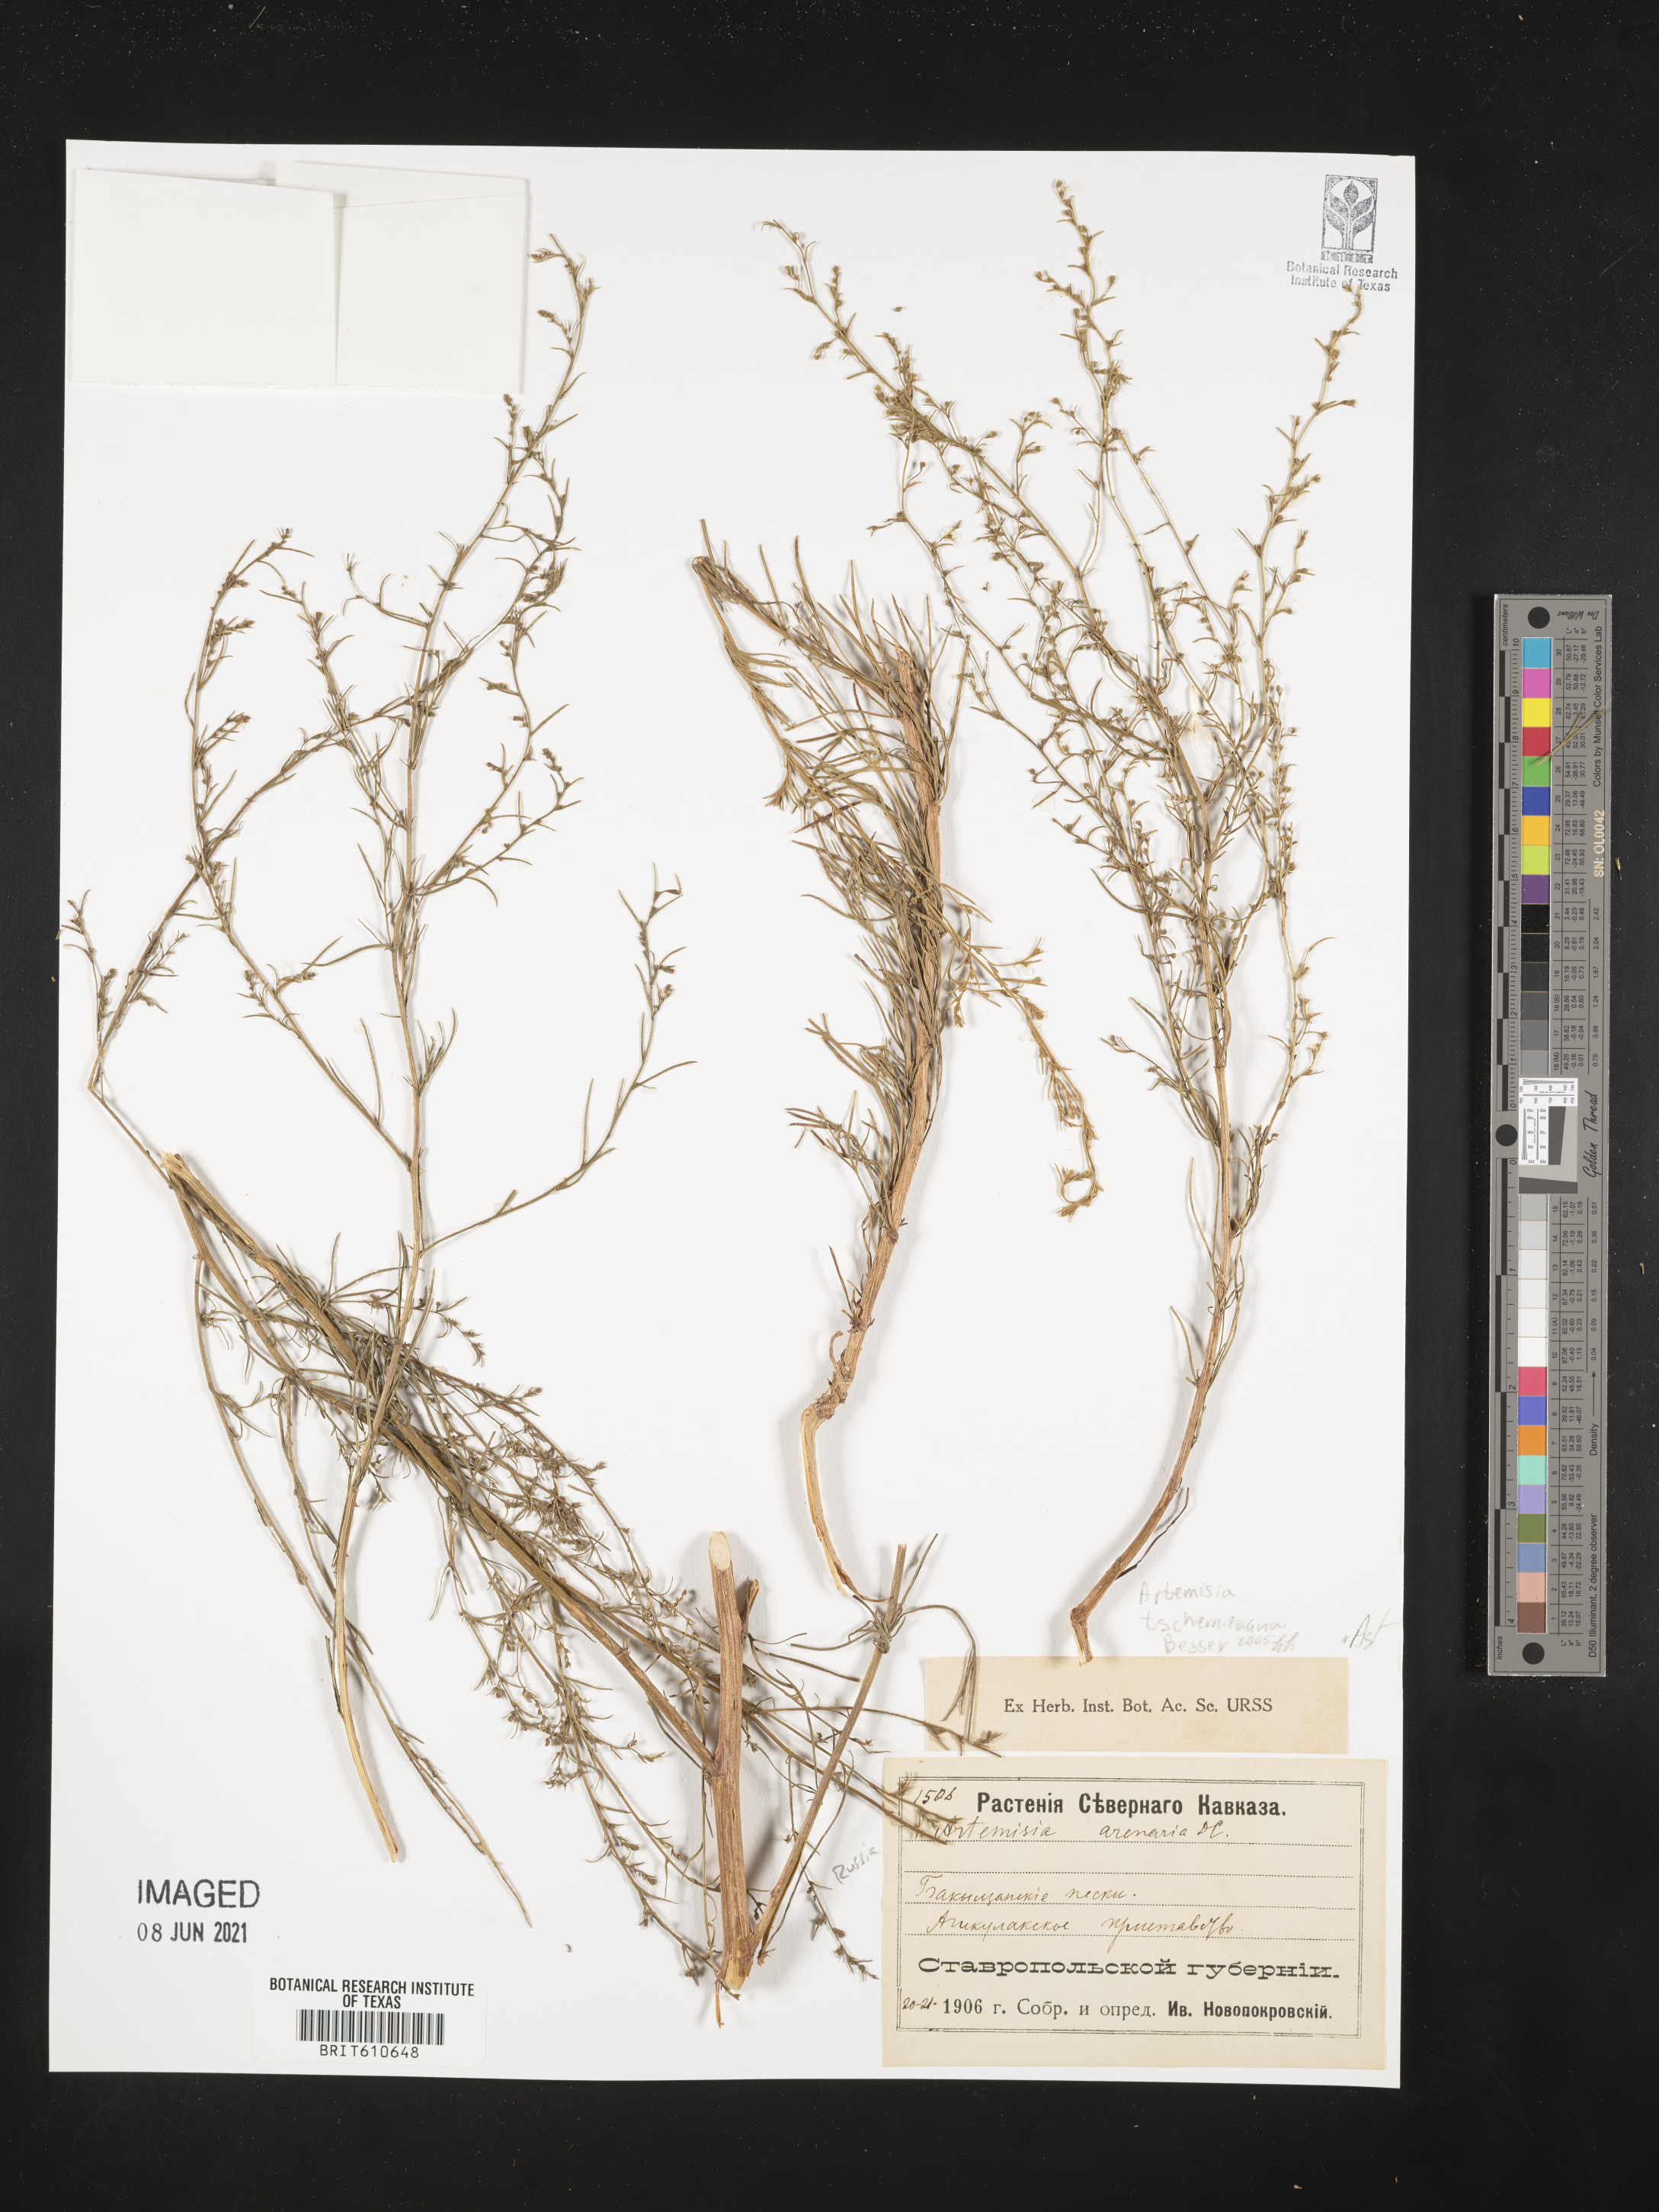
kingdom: Plantae
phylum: Tracheophyta
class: Magnoliopsida
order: Asterales
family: Asteraceae
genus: Artemisia
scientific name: Artemisia marschalliana
